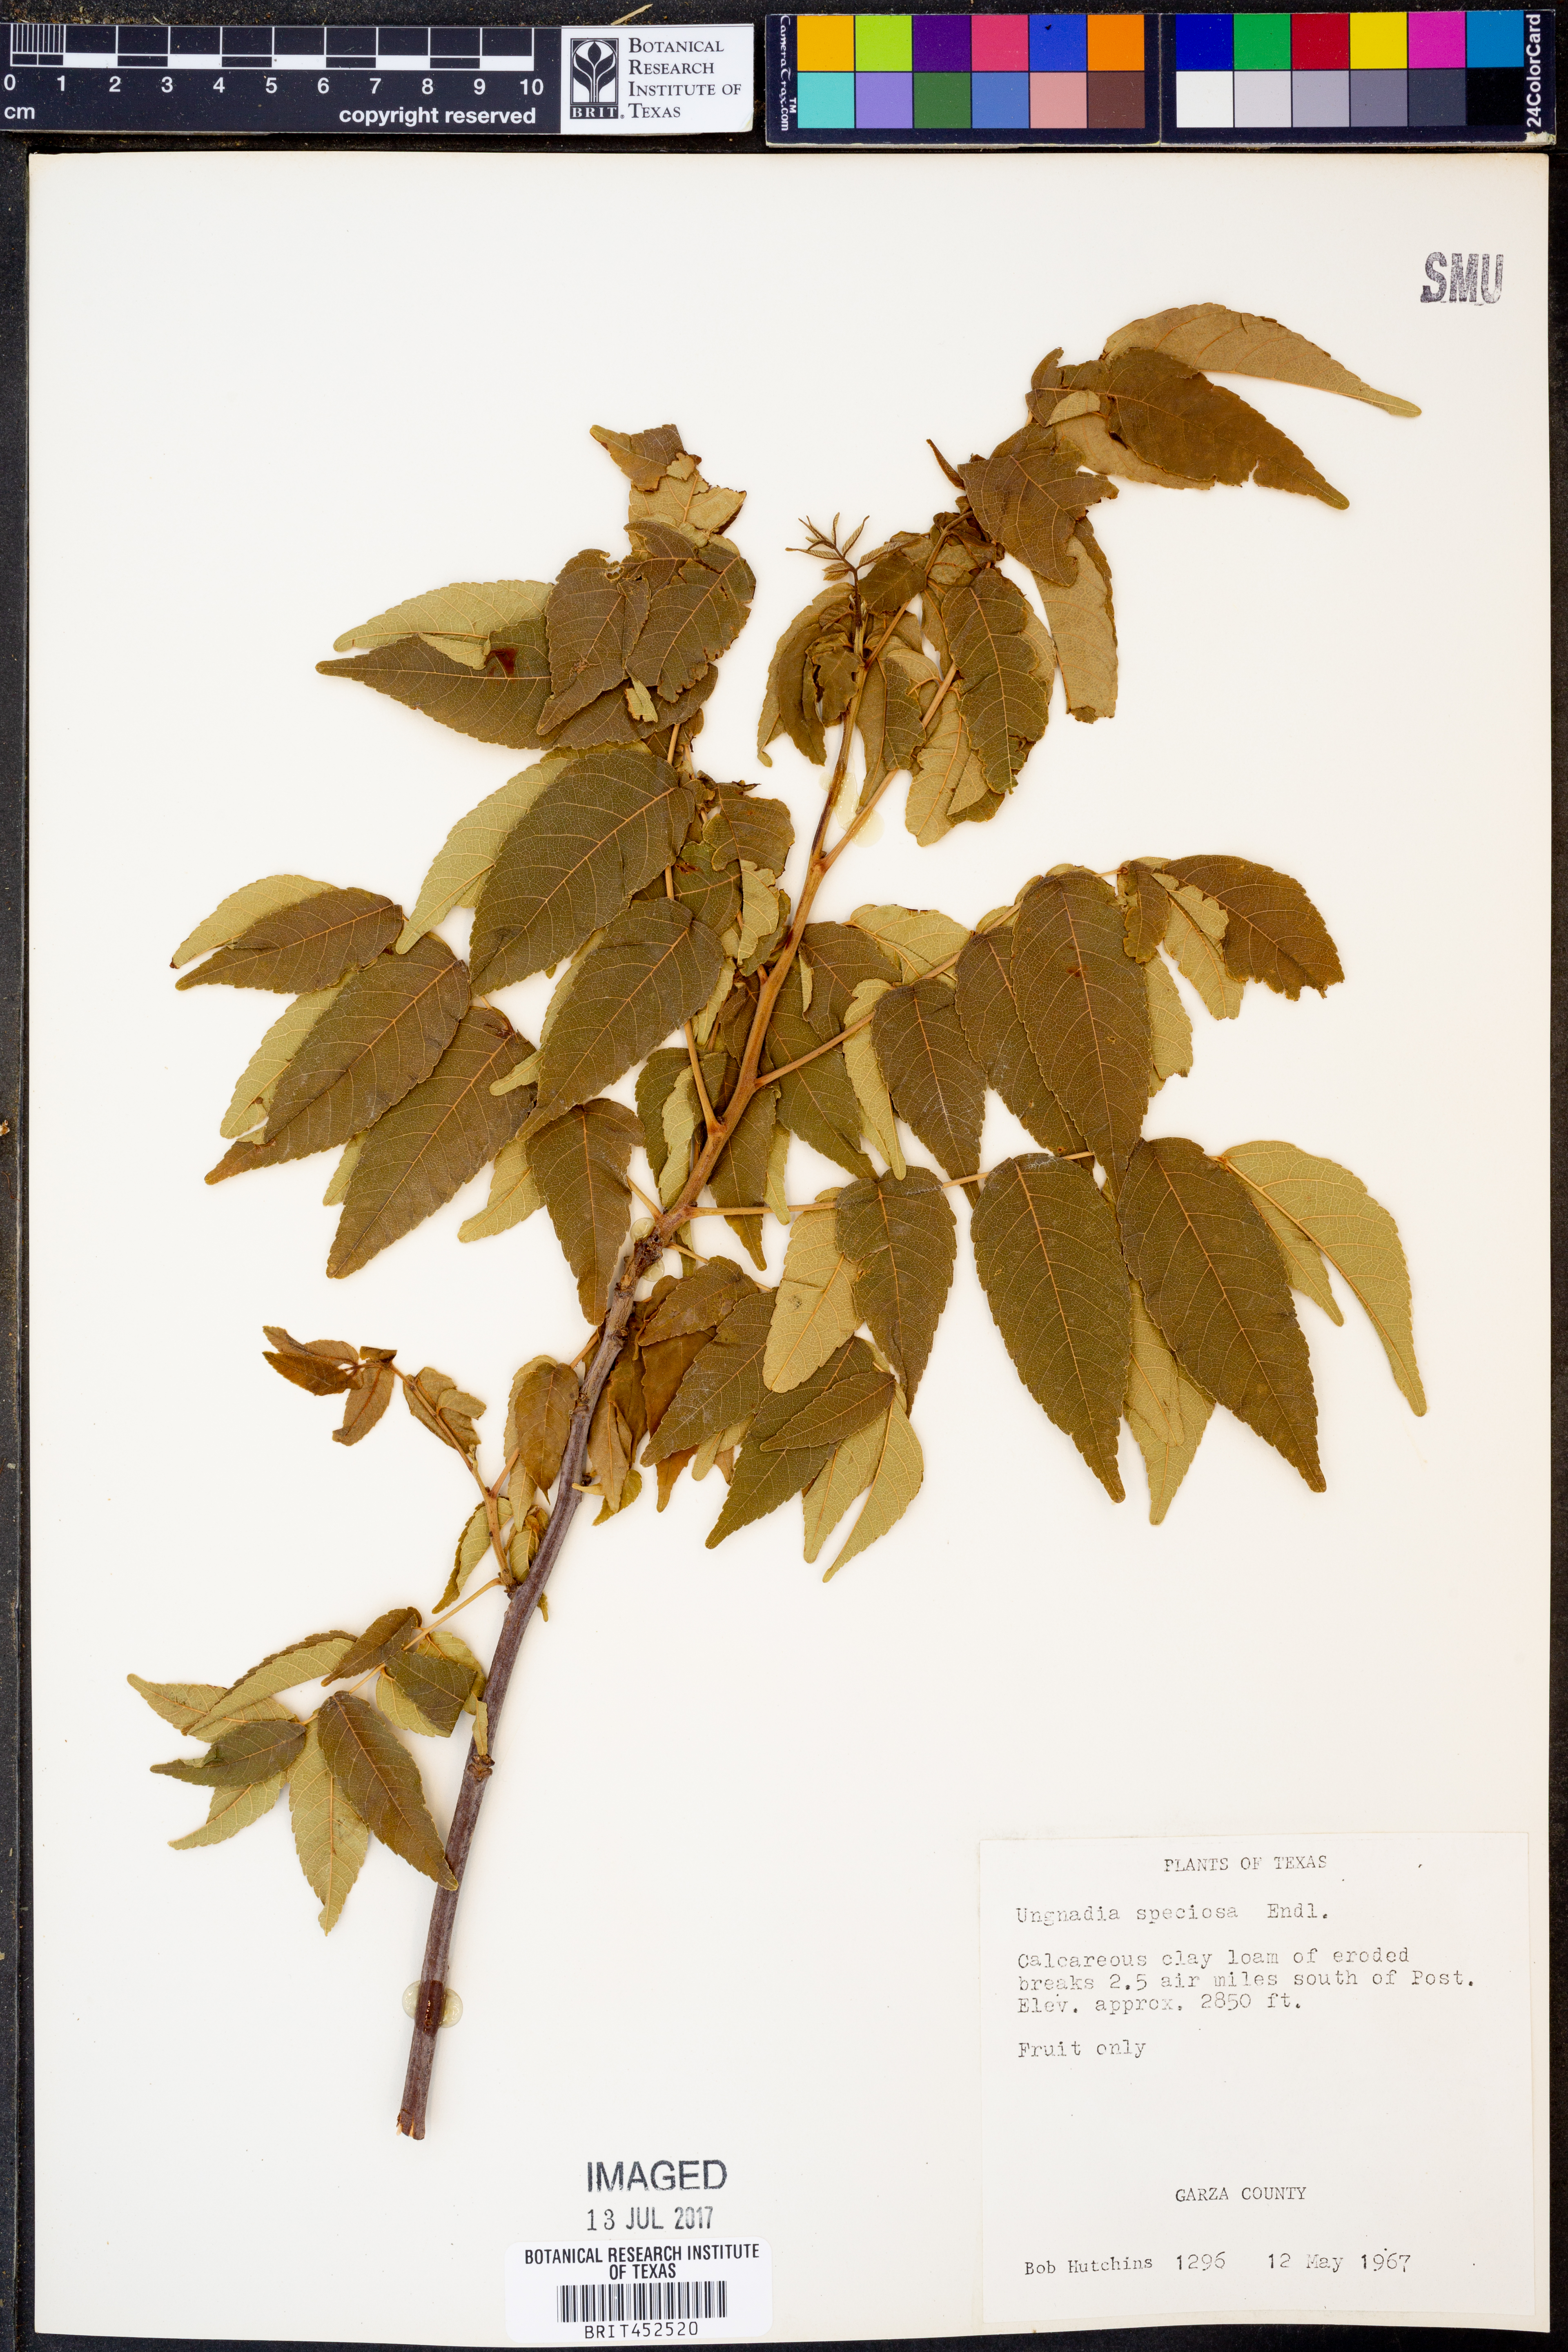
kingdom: Plantae
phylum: Tracheophyta
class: Magnoliopsida
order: Sapindales
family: Sapindaceae
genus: Ungnadia
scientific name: Ungnadia speciosa
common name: Texas-buckeye
